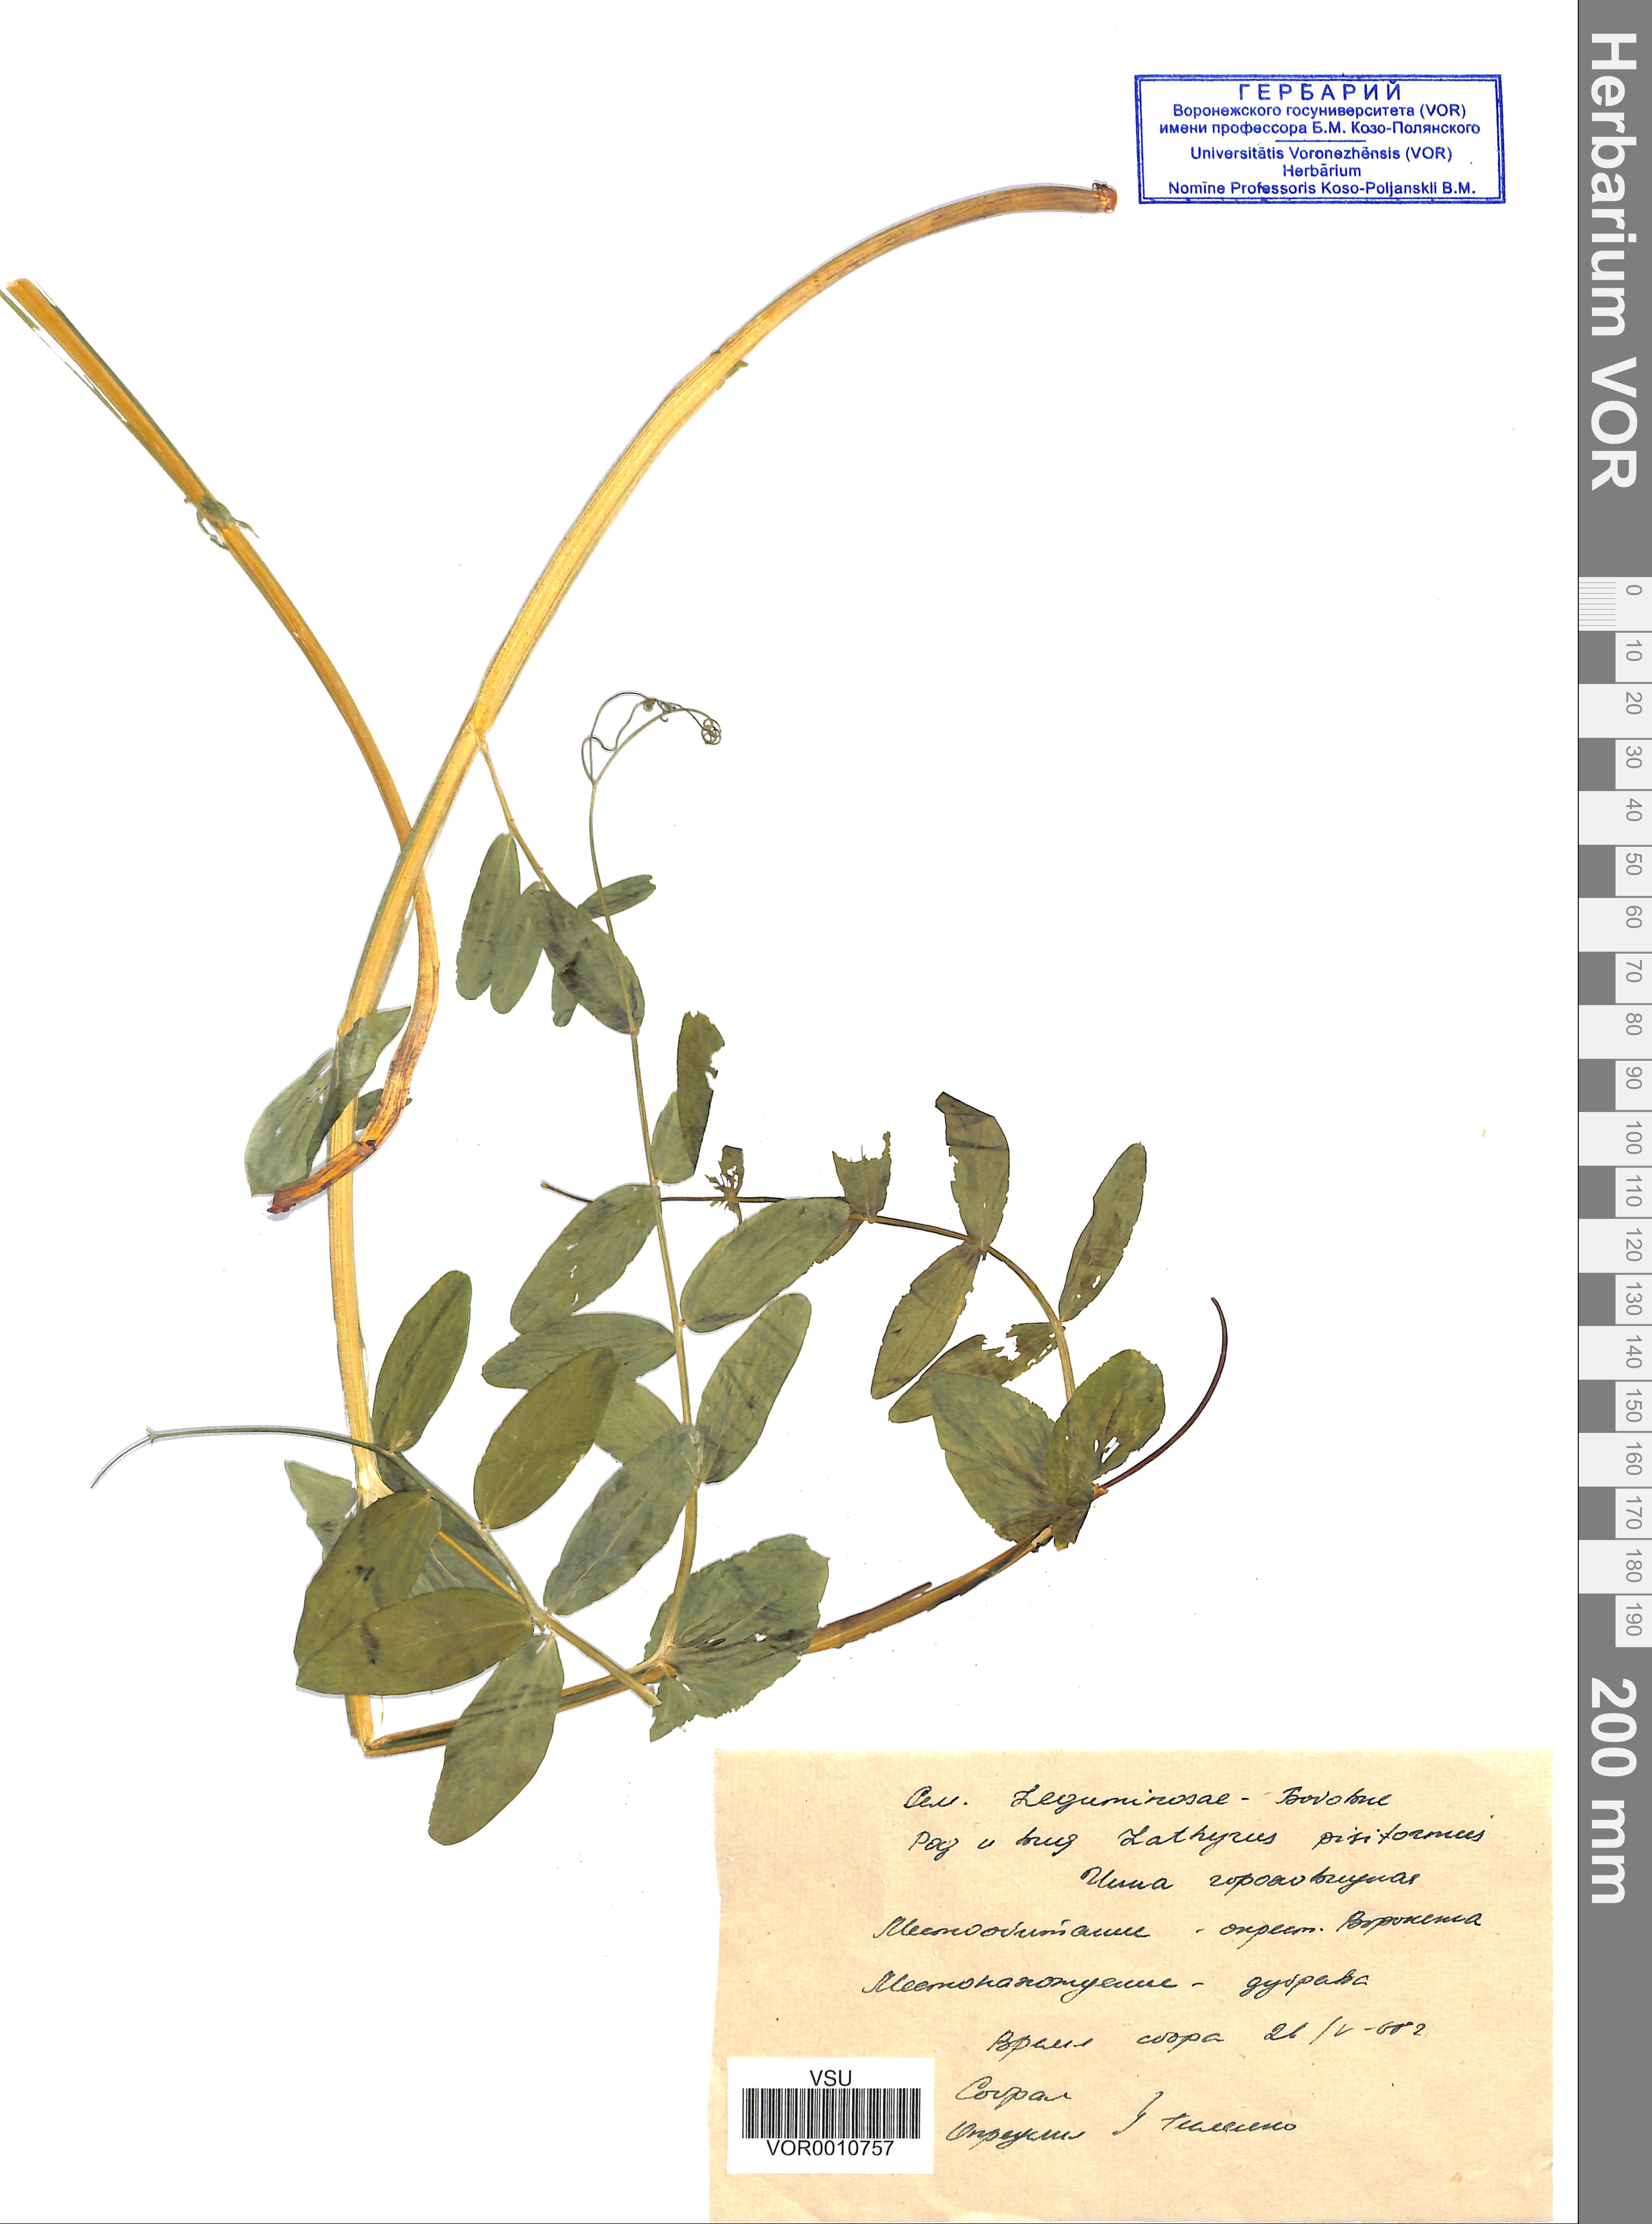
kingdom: Plantae
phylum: Tracheophyta
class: Magnoliopsida
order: Fabales
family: Fabaceae
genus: Lathyrus
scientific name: Lathyrus pisiformis
